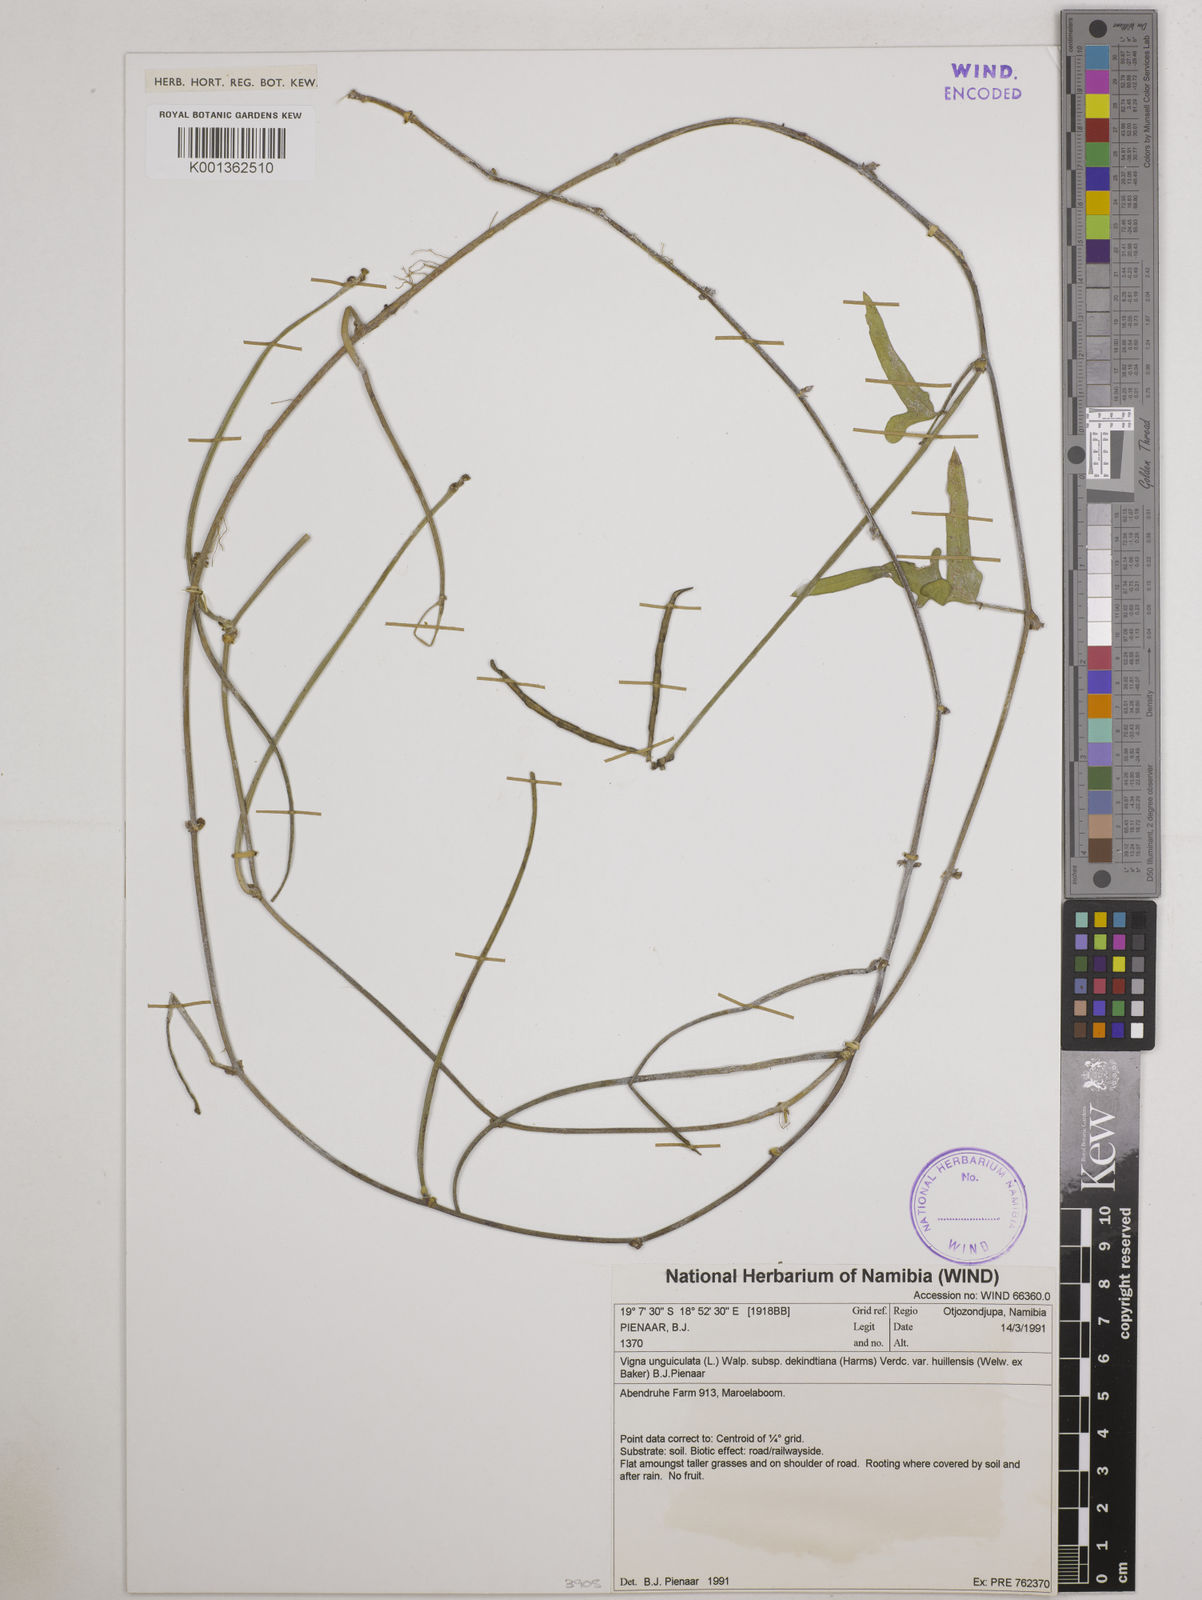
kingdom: Plantae
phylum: Tracheophyta
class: Magnoliopsida
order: Fabales
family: Fabaceae
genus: Vigna
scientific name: Vigna
